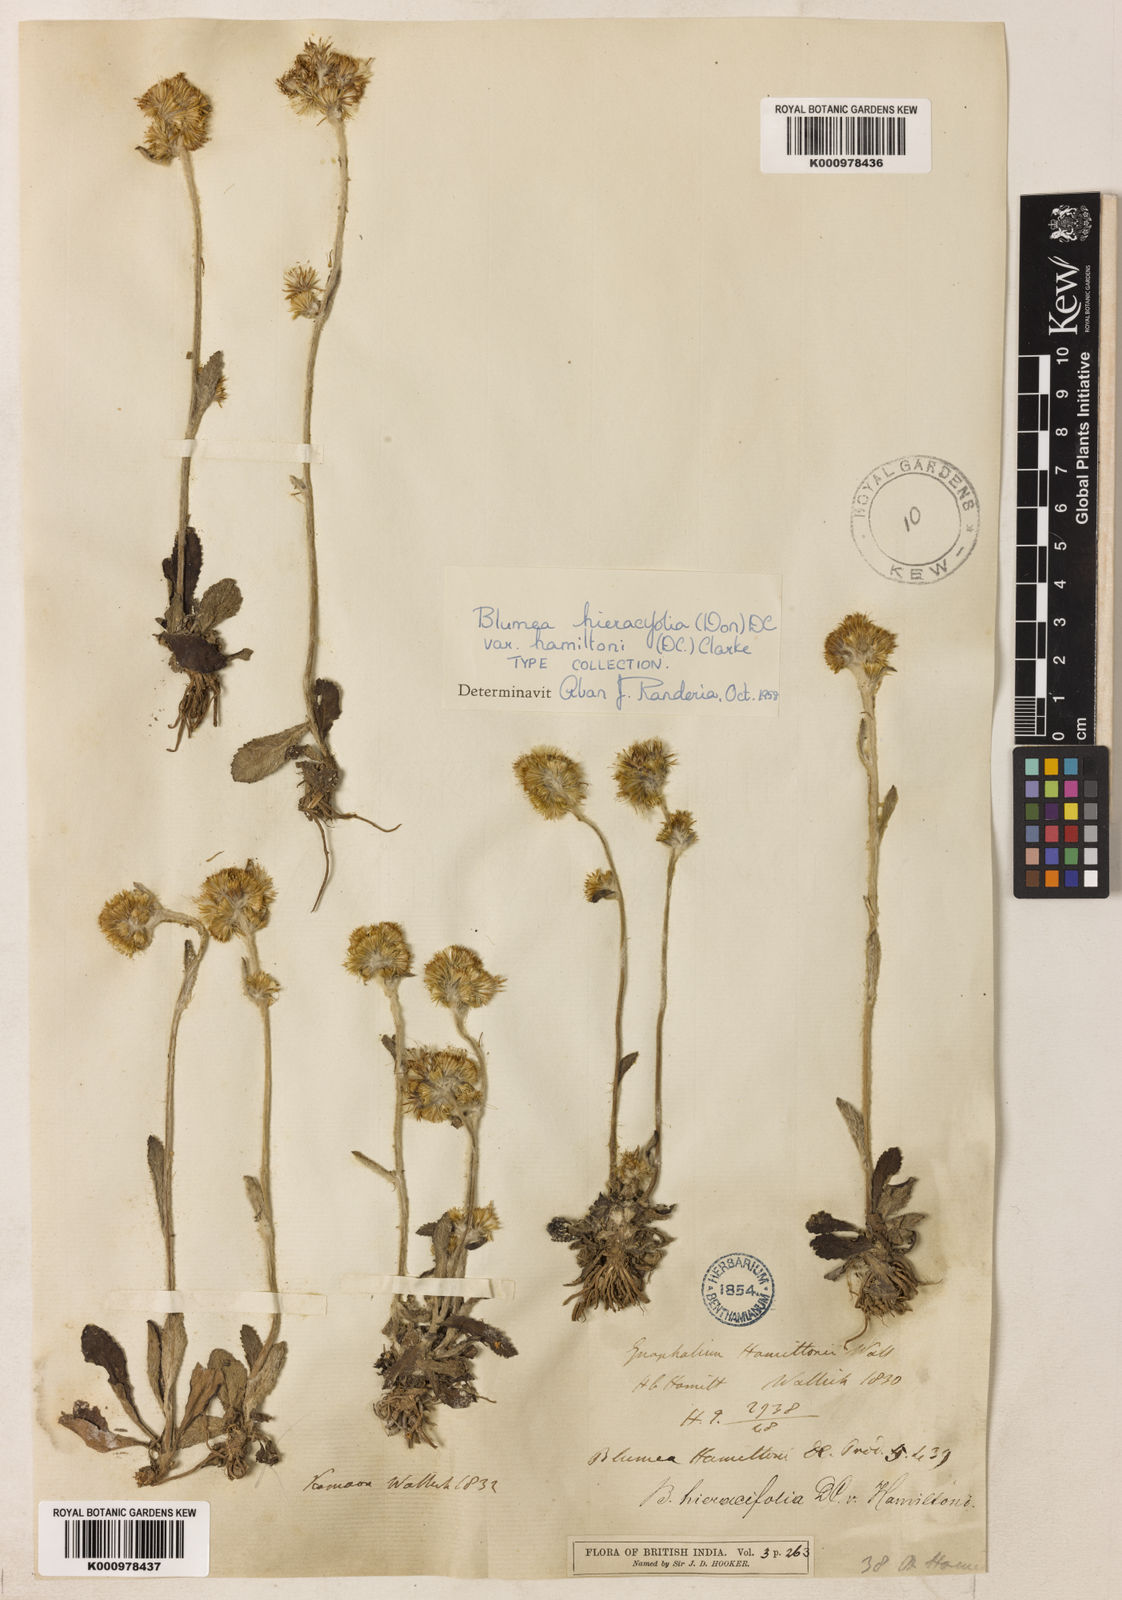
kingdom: Plantae
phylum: Tracheophyta
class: Magnoliopsida
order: Asterales
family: Asteraceae
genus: Blumea
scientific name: Blumea hieraciifolia
